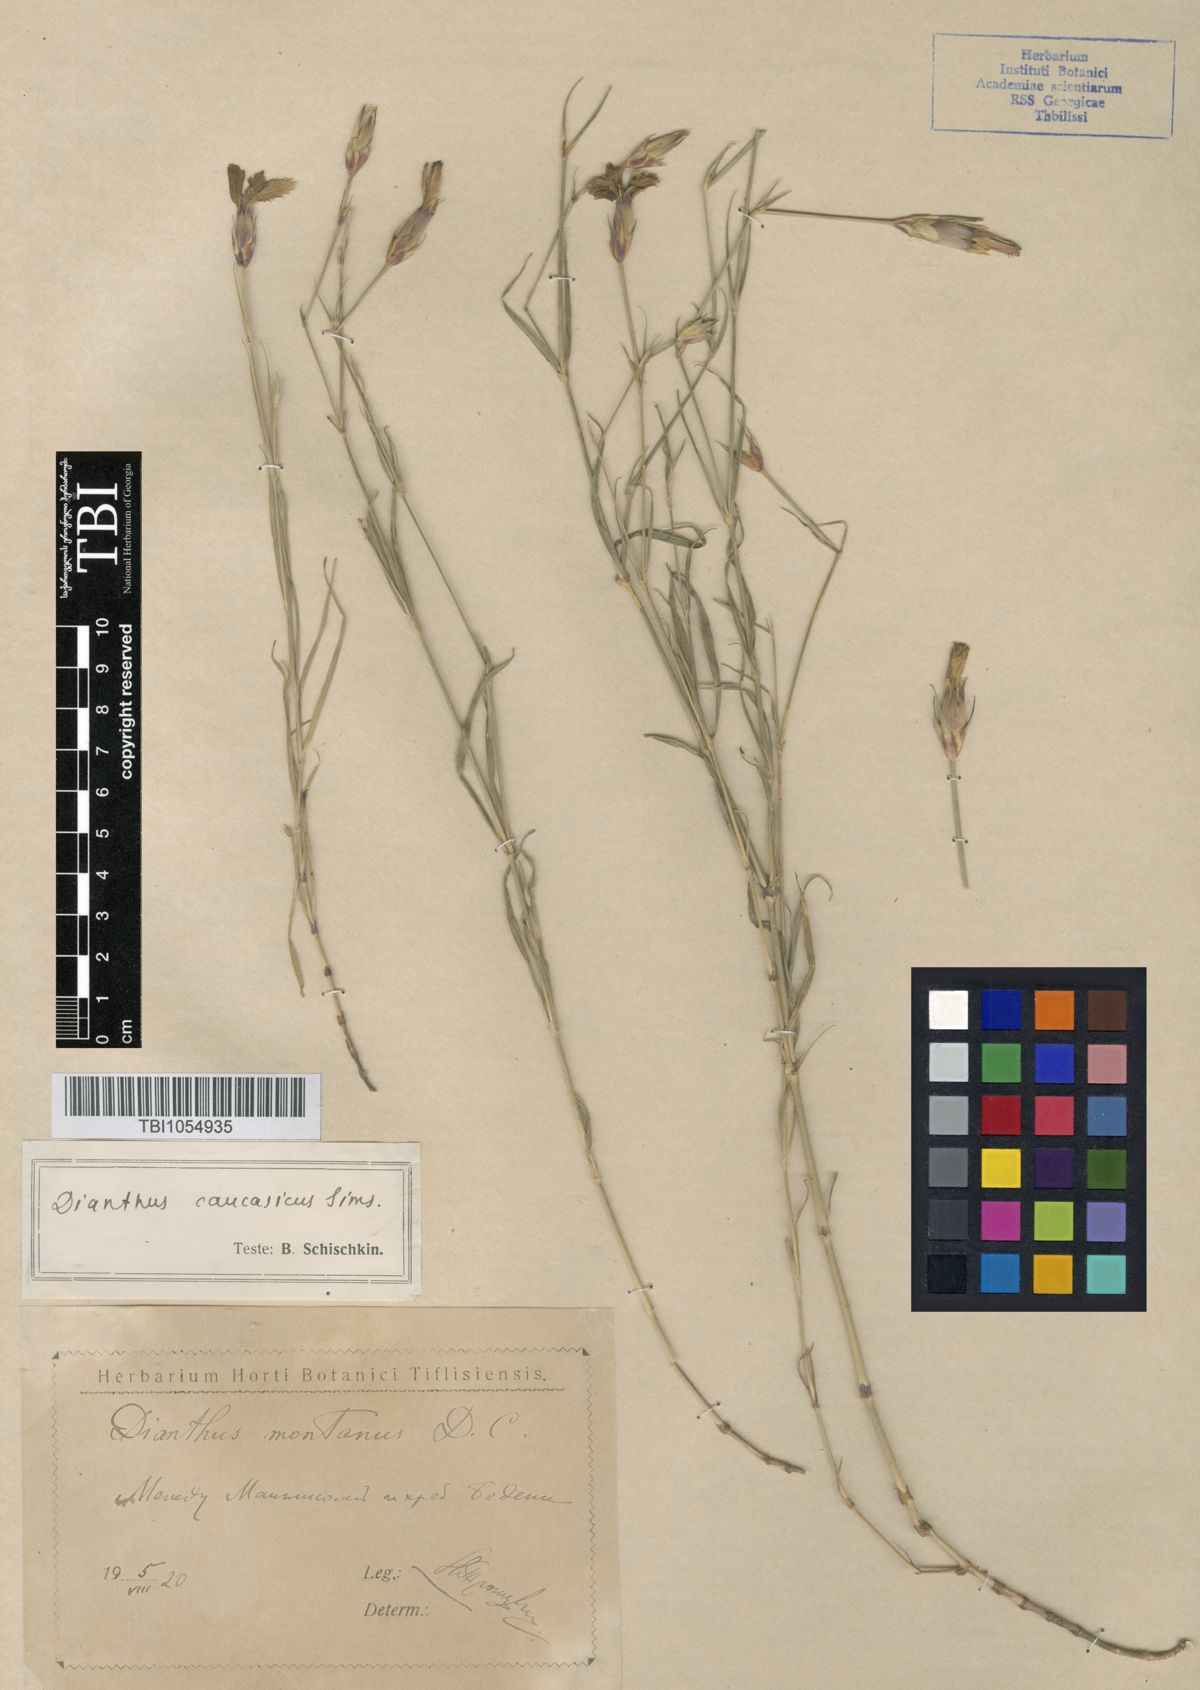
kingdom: Plantae
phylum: Tracheophyta
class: Magnoliopsida
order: Caryophyllales
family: Caryophyllaceae
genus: Dianthus
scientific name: Dianthus caucaseus
